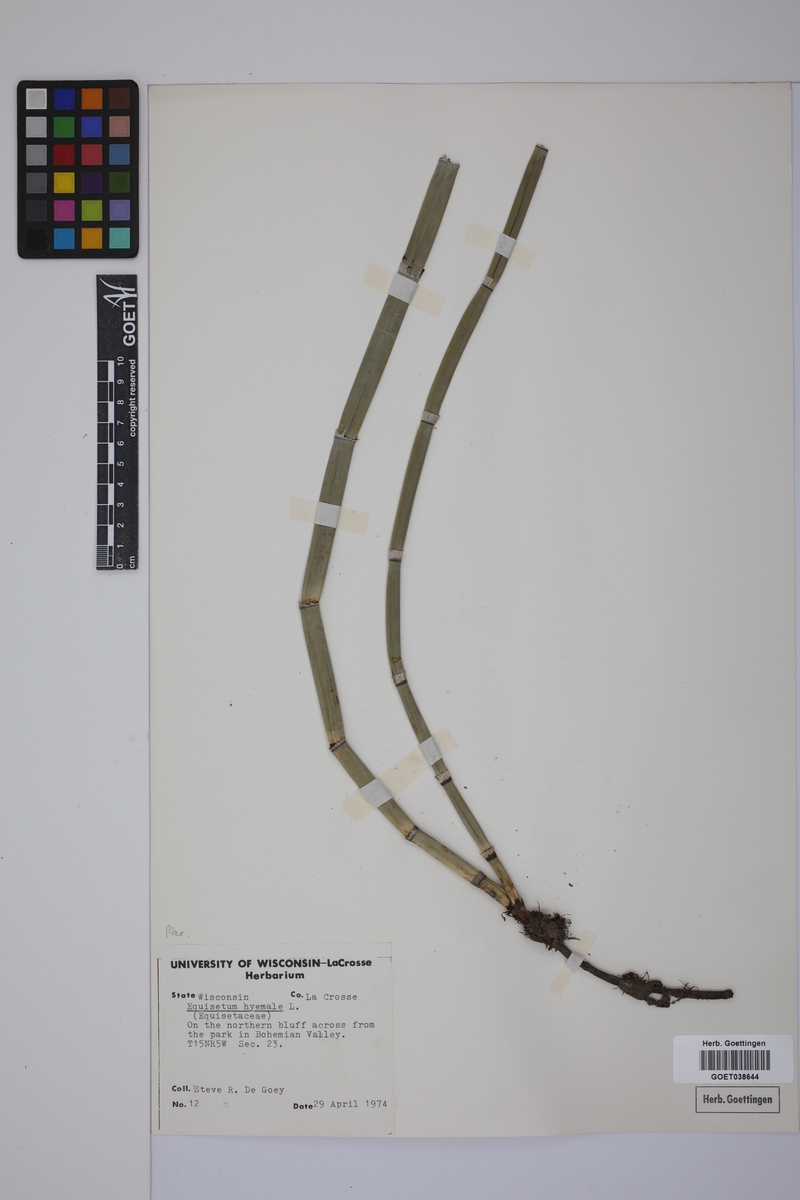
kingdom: Plantae
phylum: Tracheophyta
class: Polypodiopsida
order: Equisetales
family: Equisetaceae
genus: Equisetum
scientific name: Equisetum hyemale
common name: Rough horsetail
